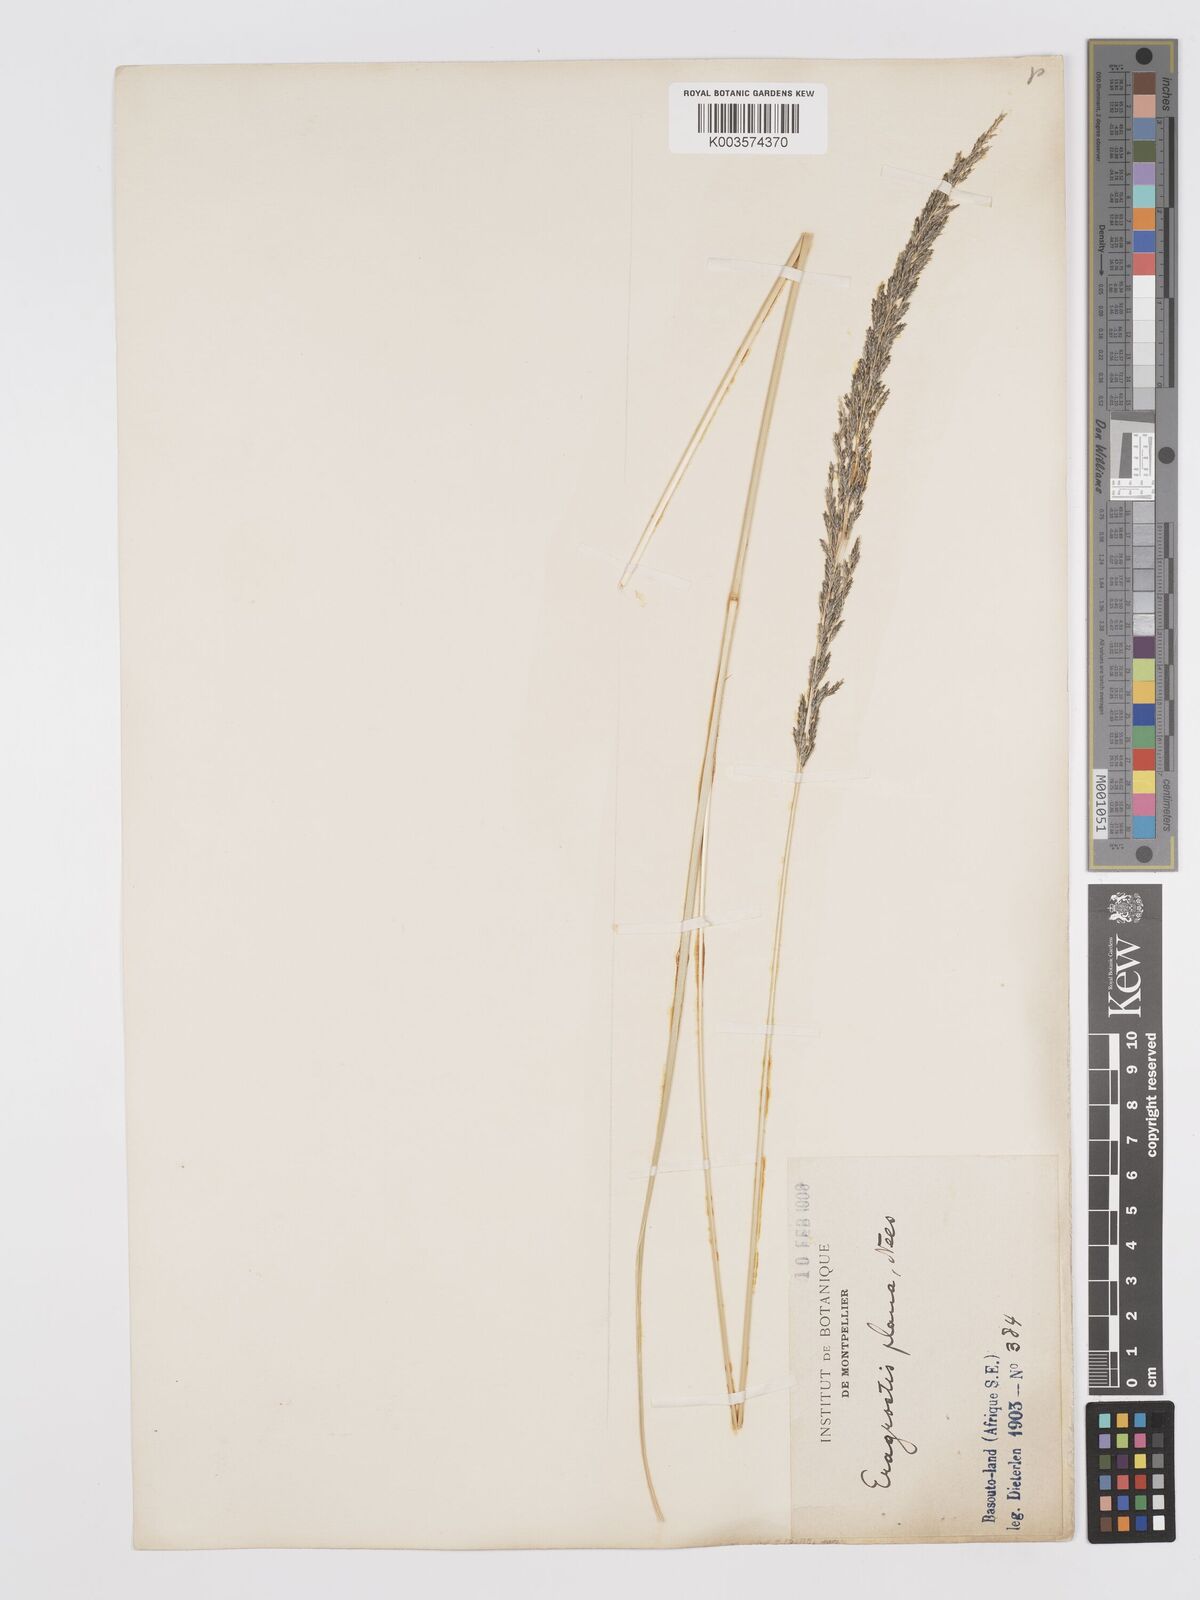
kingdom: Plantae
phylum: Tracheophyta
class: Liliopsida
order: Poales
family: Poaceae
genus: Eragrostis
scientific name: Eragrostis plana
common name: South african lovegrass
